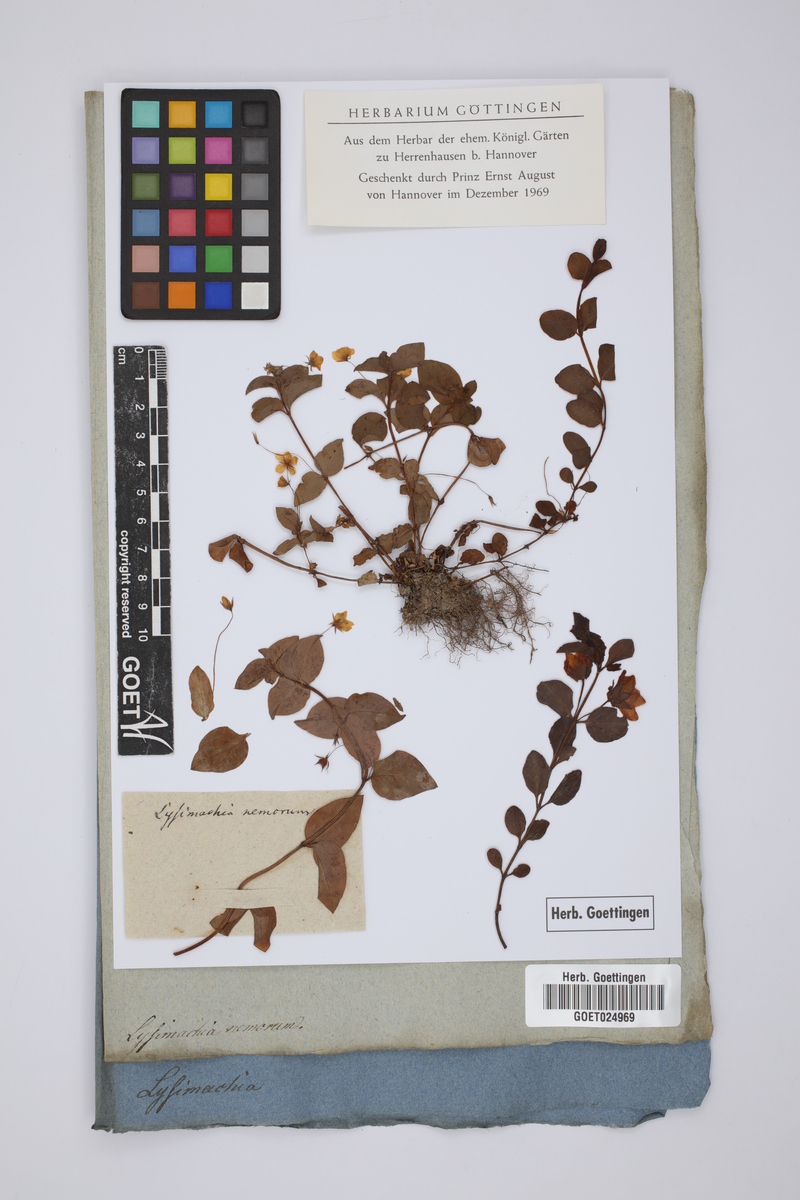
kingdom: Plantae
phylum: Tracheophyta
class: Magnoliopsida
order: Ericales
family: Primulaceae
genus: Lysimachia
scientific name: Lysimachia nemorum
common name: Yellow pimpernel
